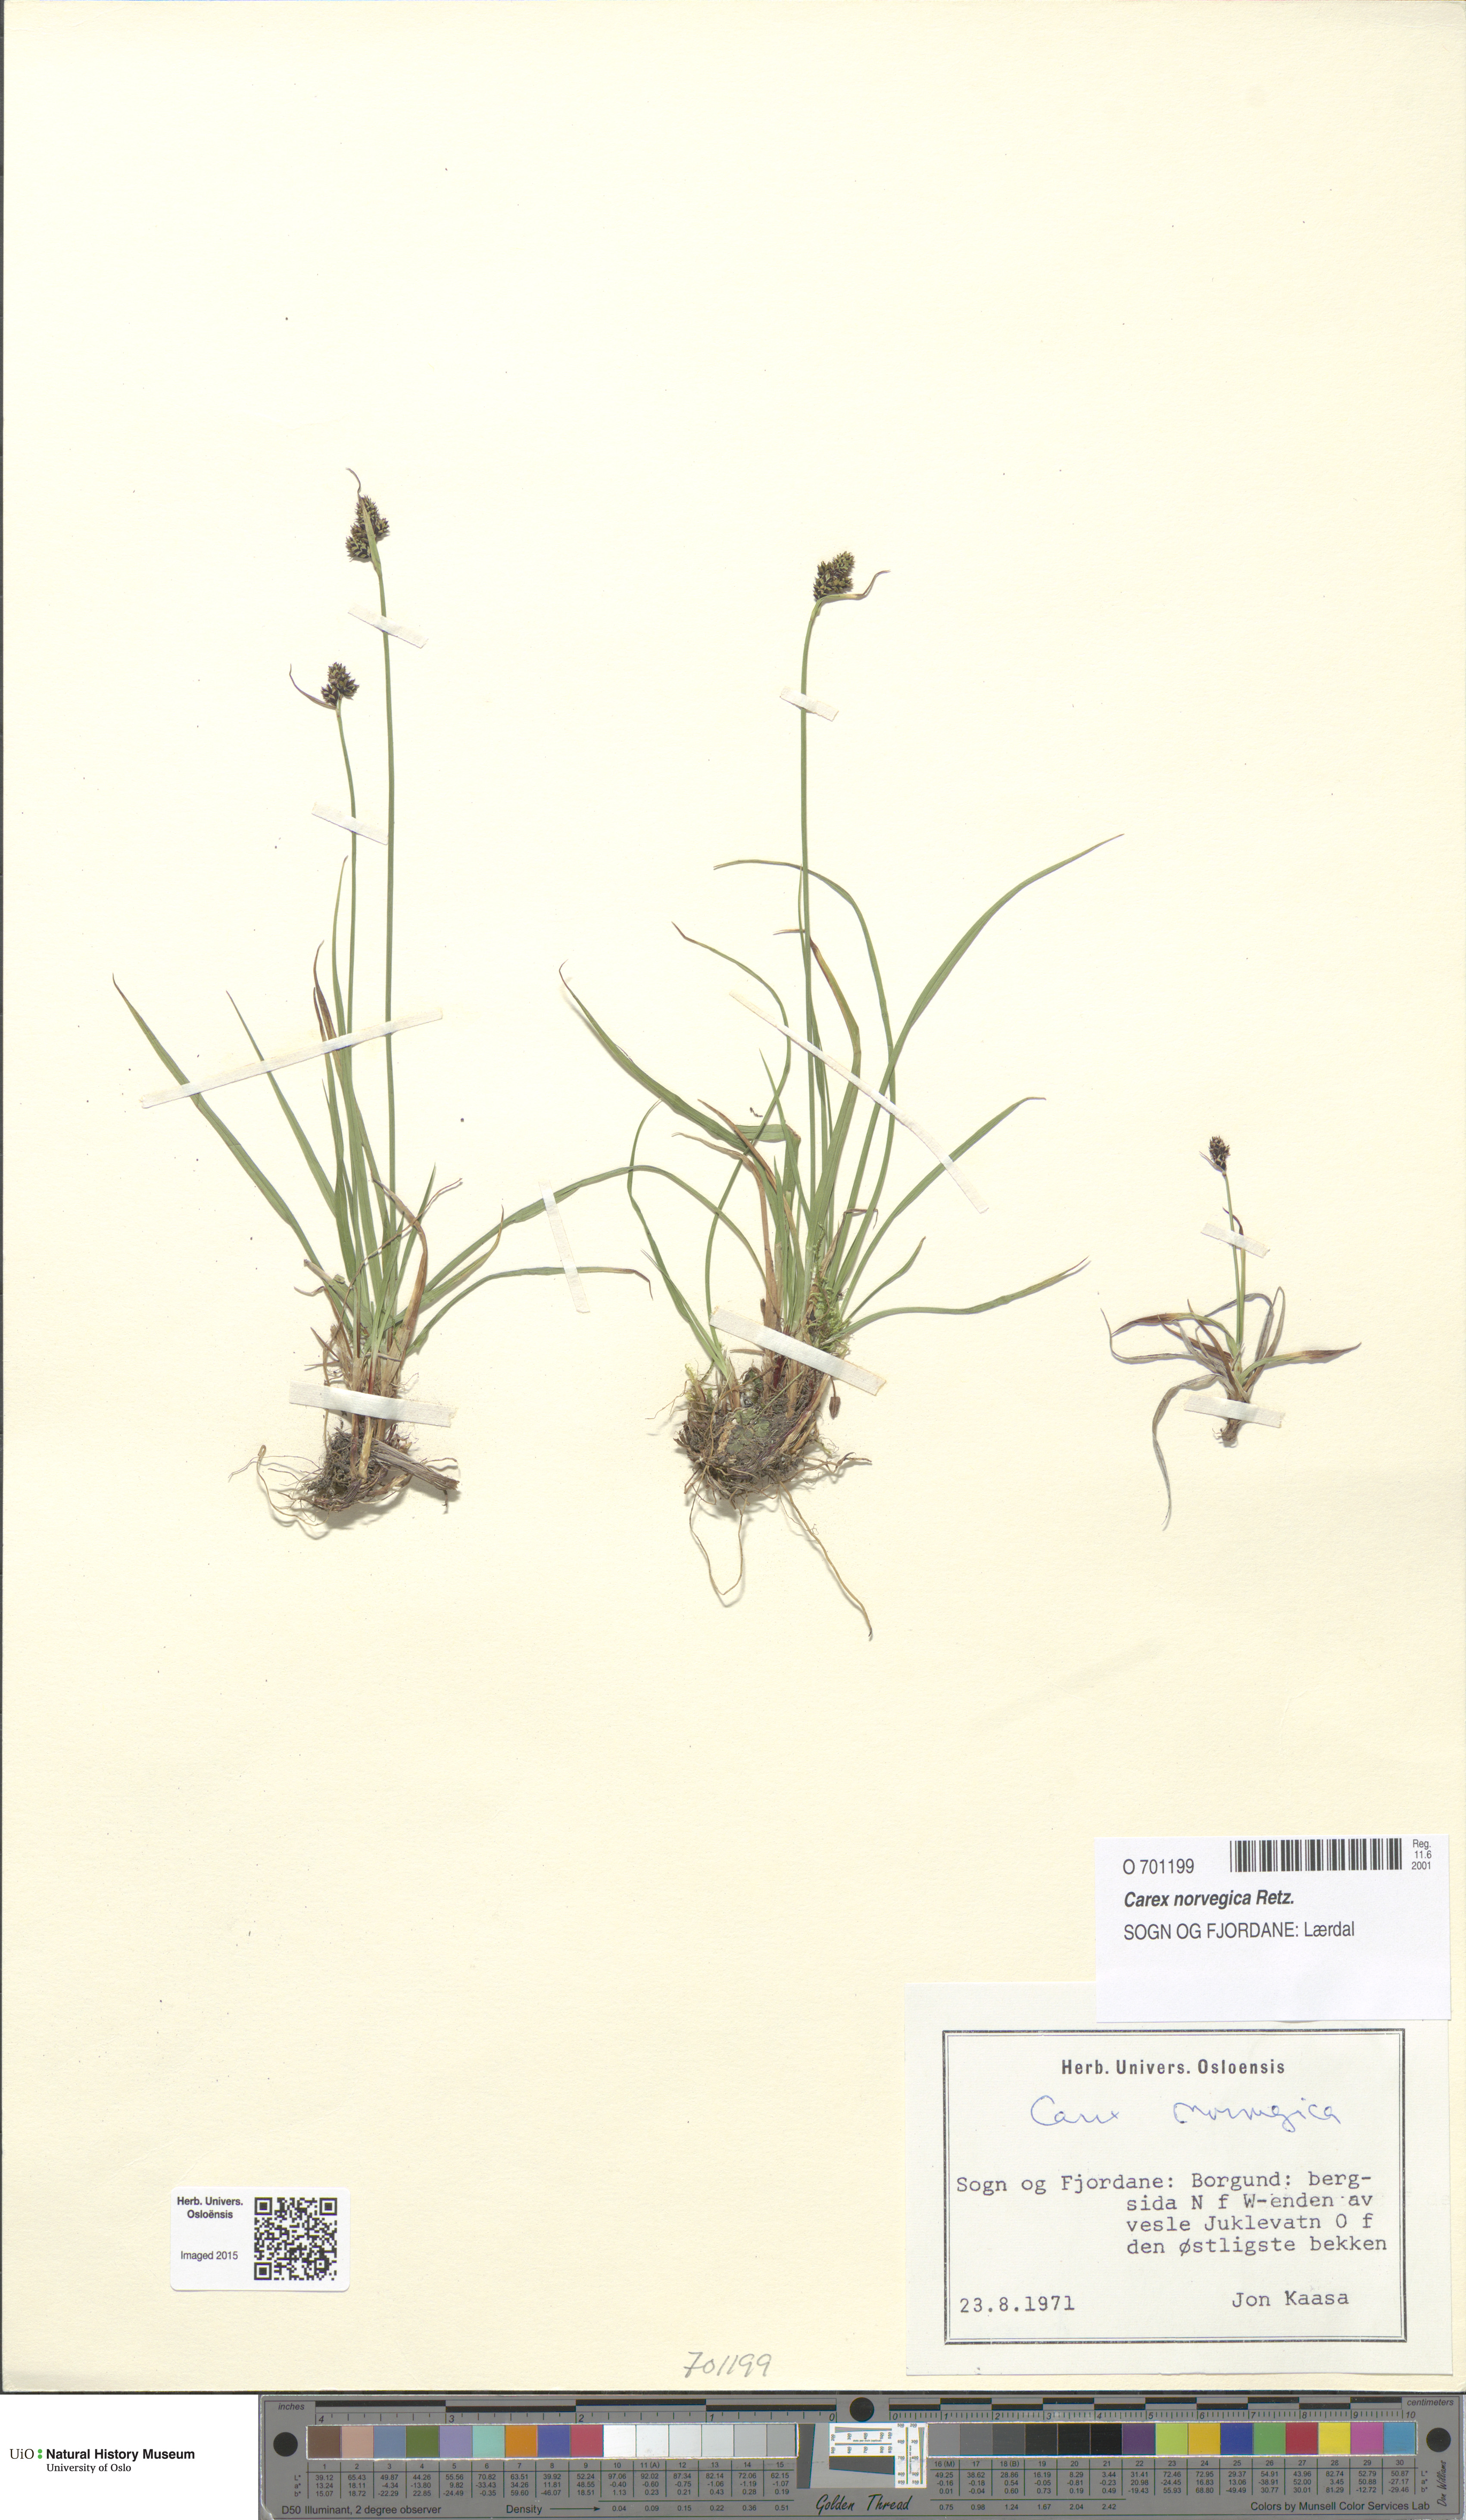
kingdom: Plantae
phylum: Tracheophyta
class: Liliopsida
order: Poales
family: Cyperaceae
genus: Carex
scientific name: Carex norvegica
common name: Close-headed alpine-sedge
